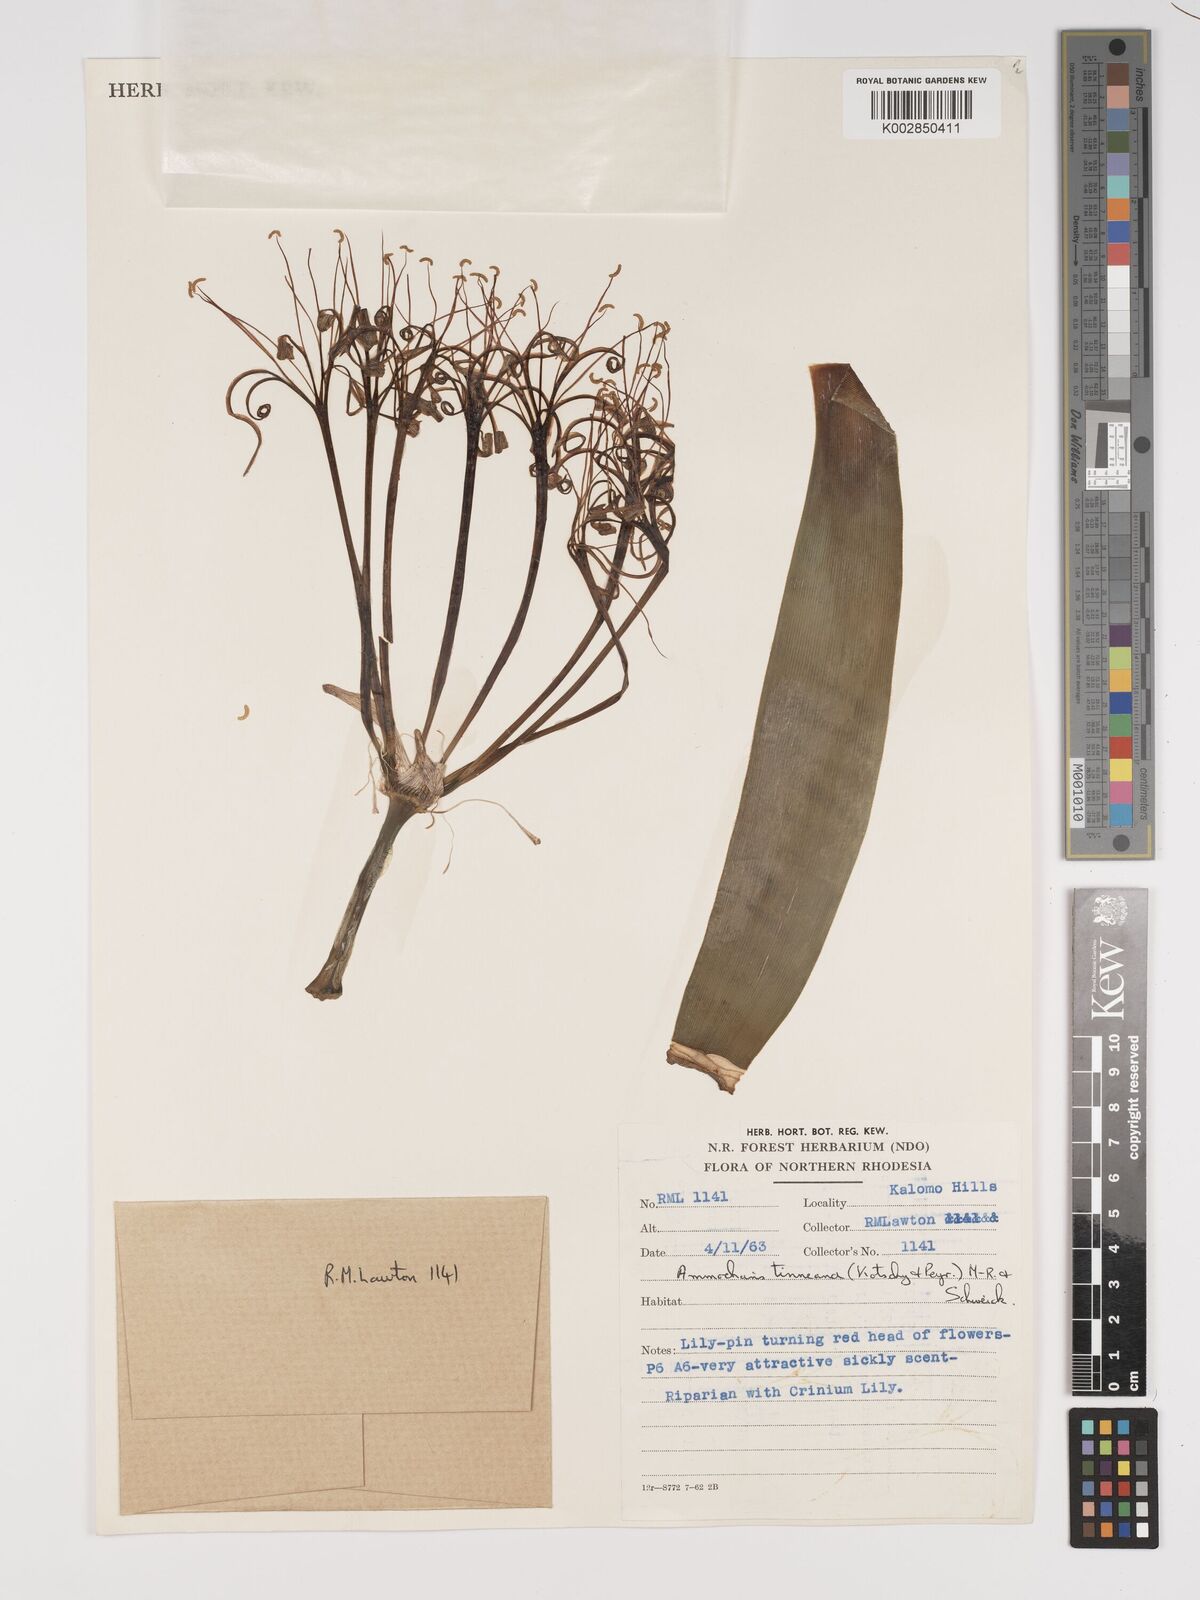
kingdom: Plantae
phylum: Tracheophyta
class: Liliopsida
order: Asparagales
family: Amaryllidaceae
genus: Ammocharis
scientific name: Ammocharis tinneana
